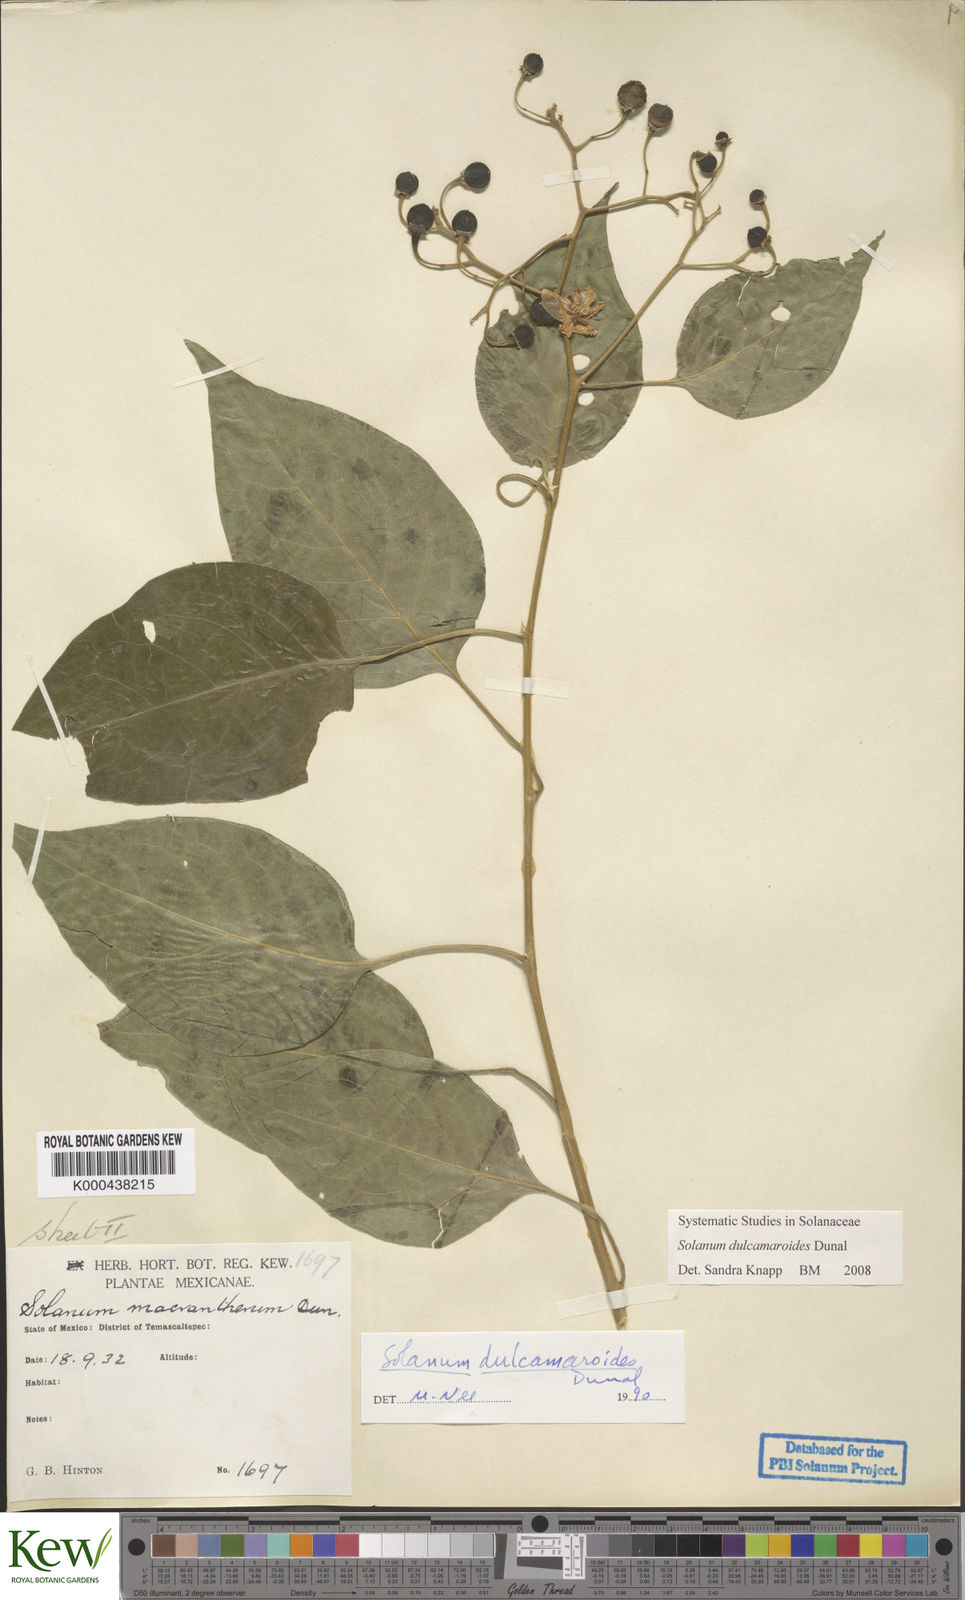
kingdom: Plantae
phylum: Tracheophyta
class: Magnoliopsida
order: Solanales
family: Solanaceae
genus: Solanum
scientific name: Solanum dulcamaroides
